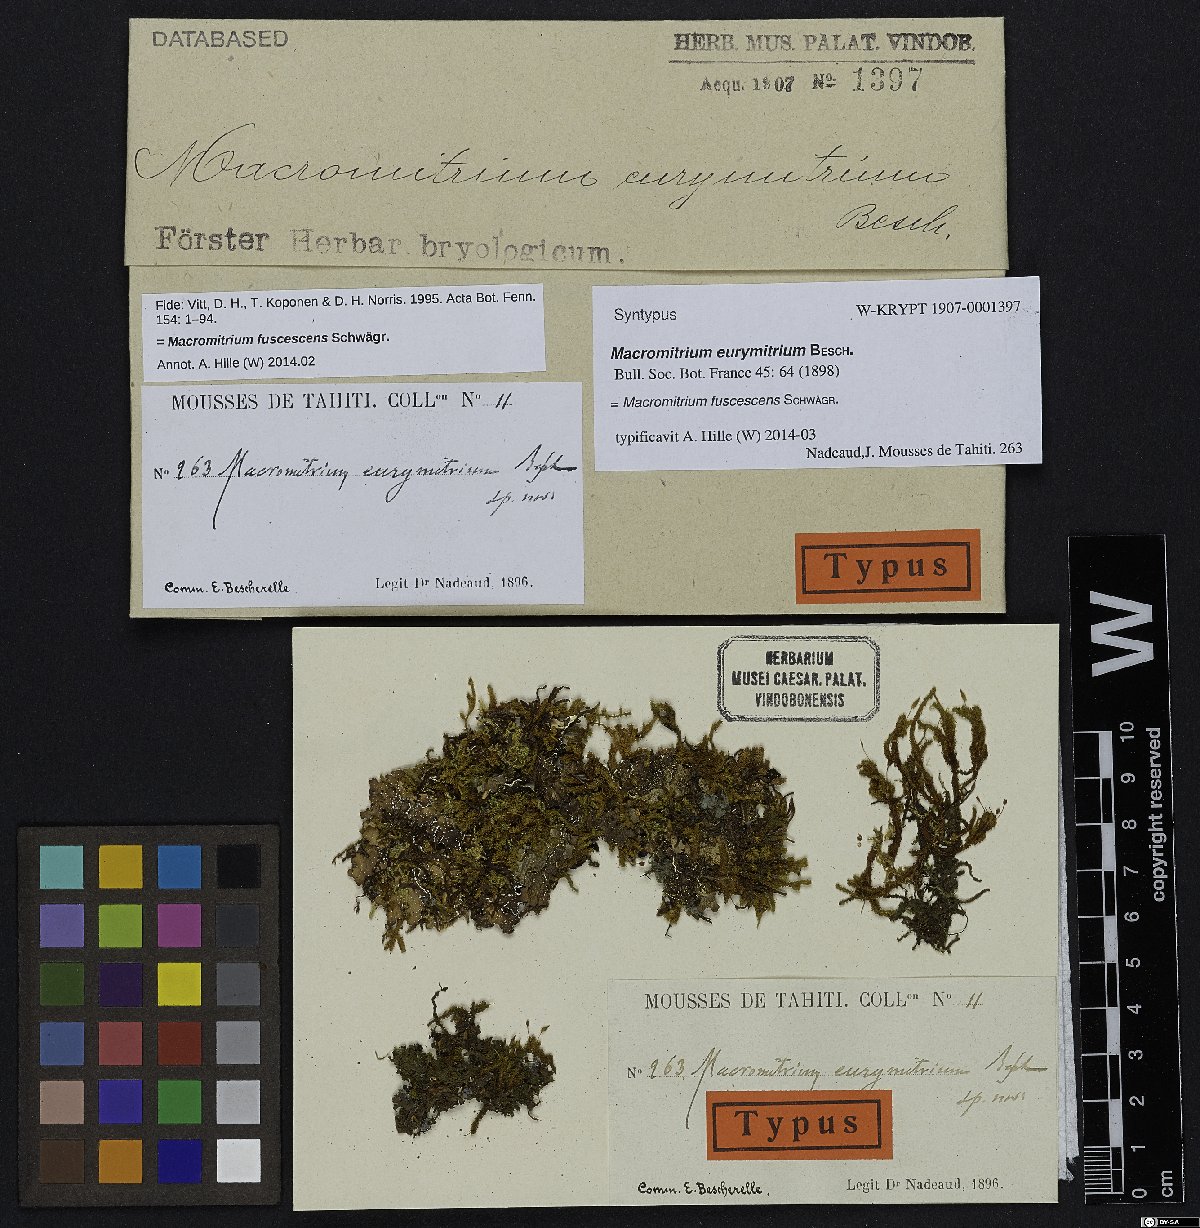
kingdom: Plantae
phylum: Bryophyta
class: Bryopsida
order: Orthotrichales
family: Orthotrichaceae
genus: Macromitrium
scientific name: Macromitrium fuscescens
